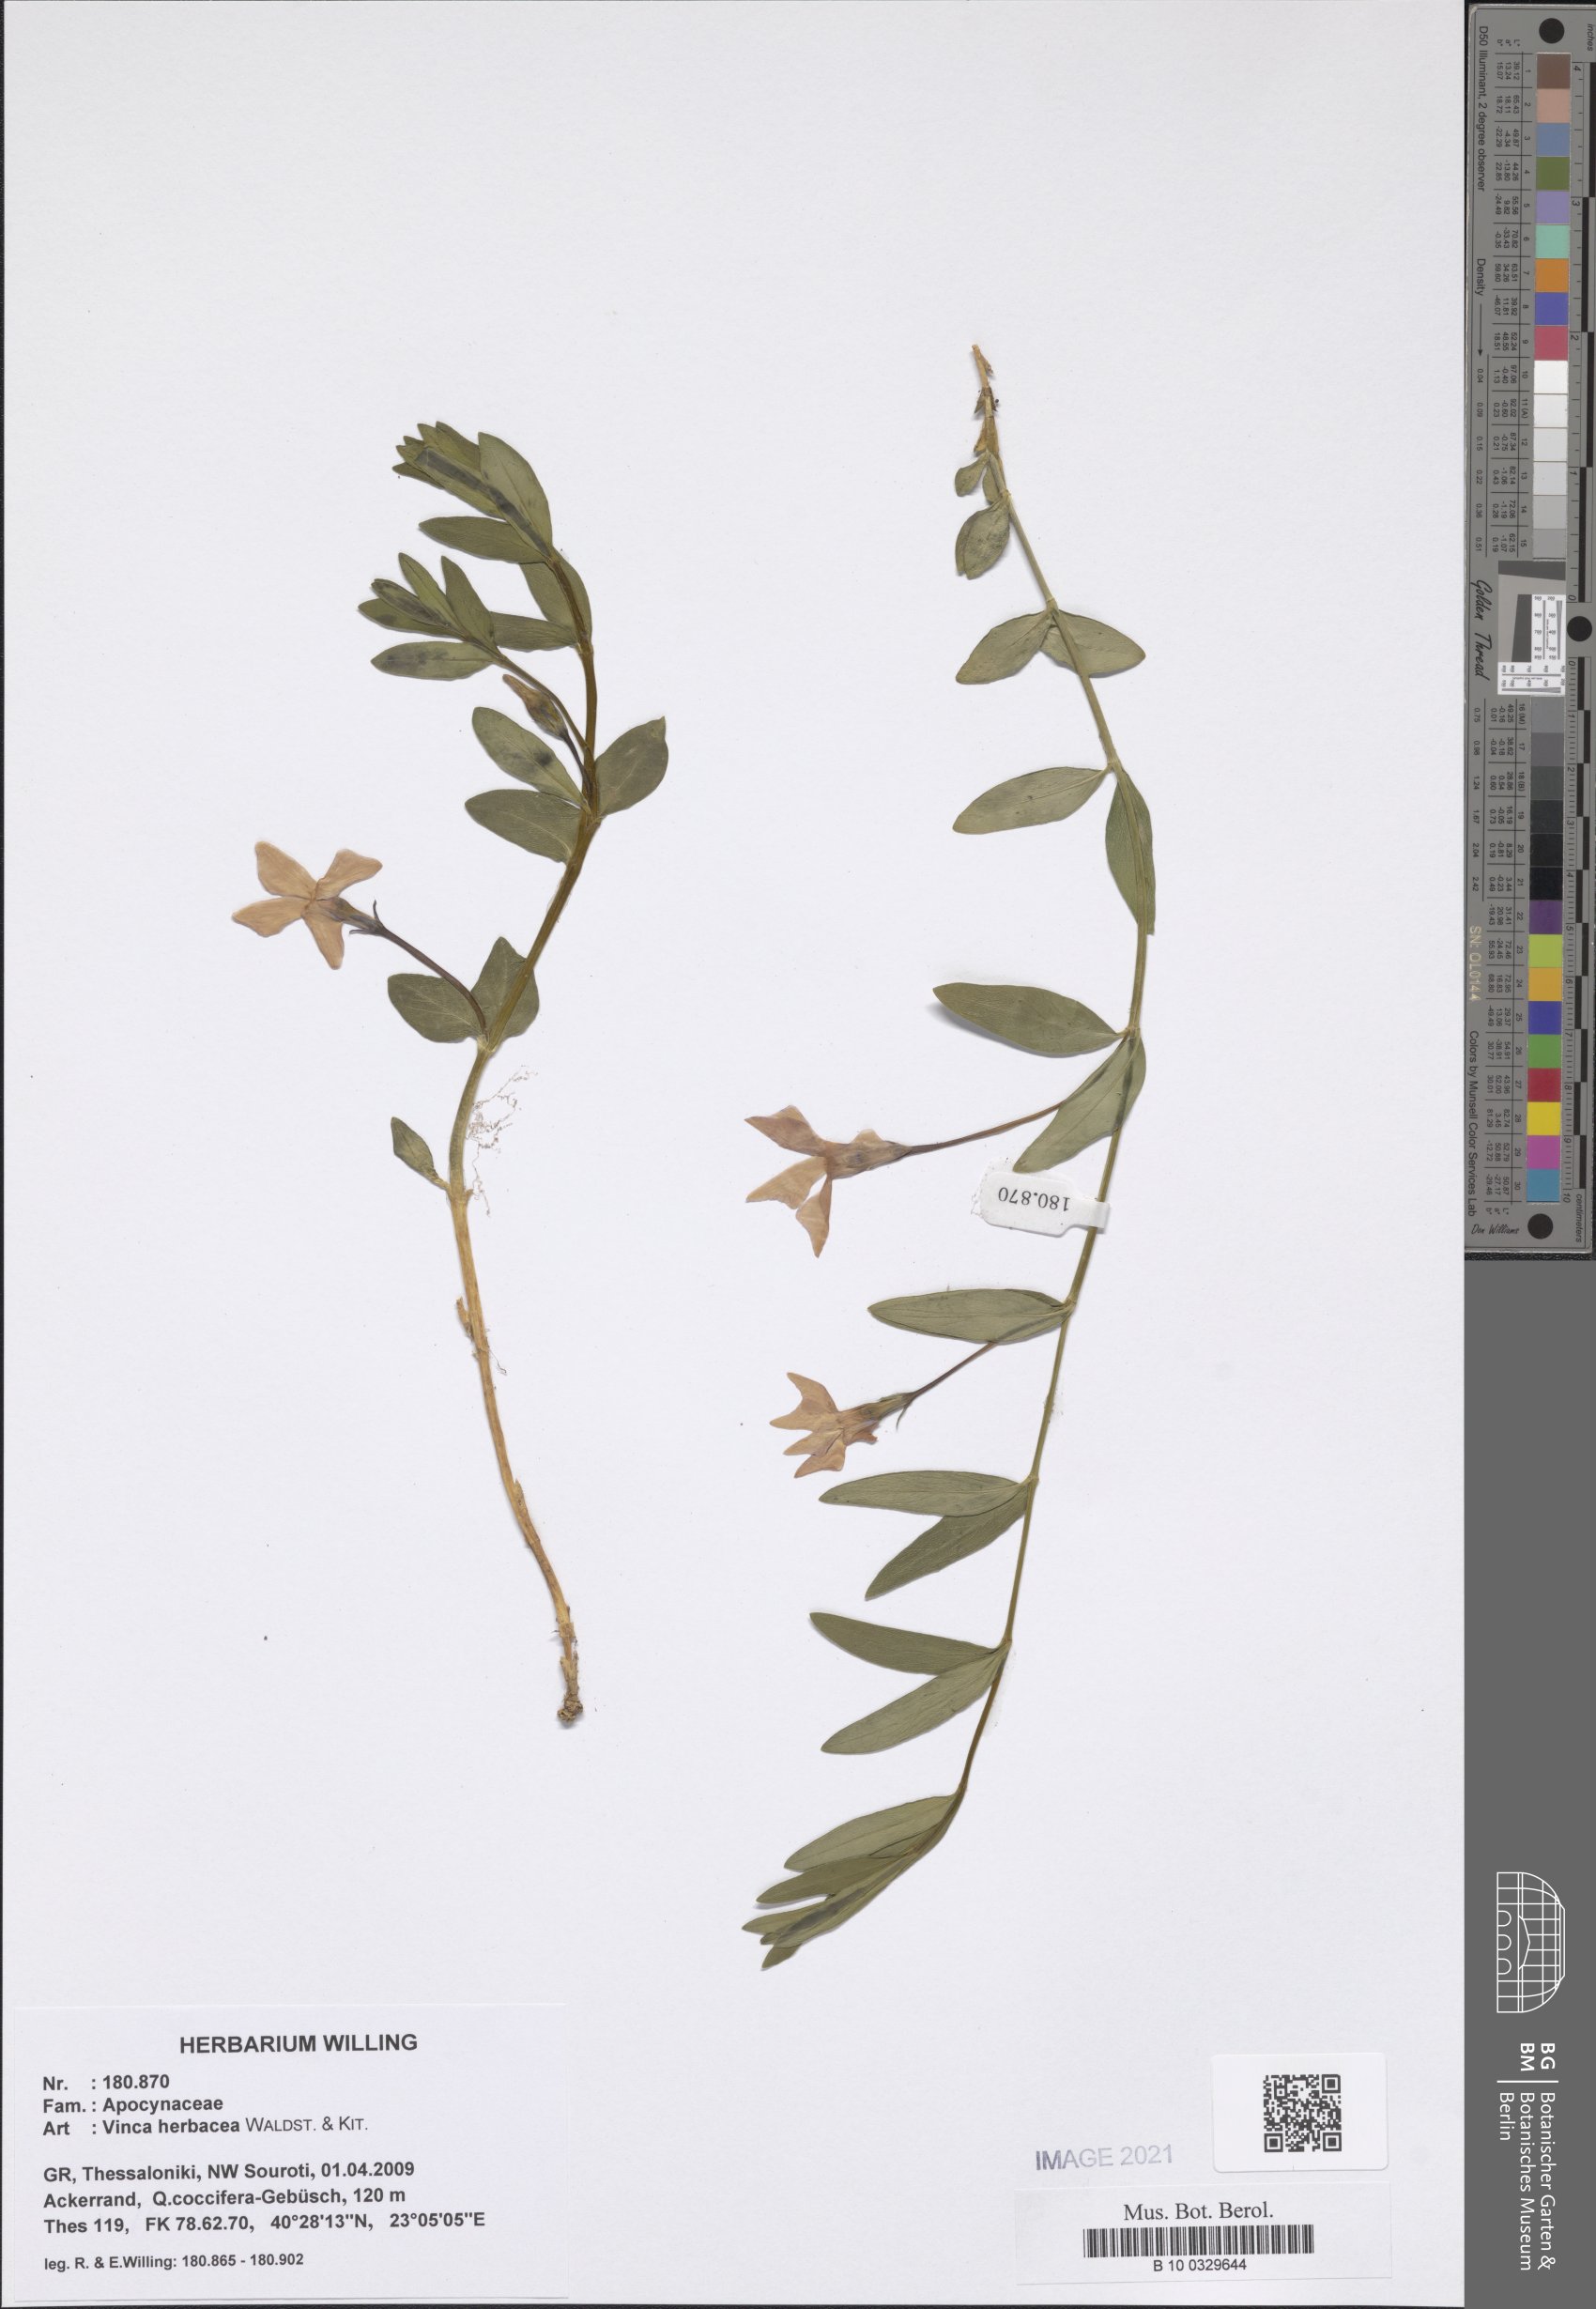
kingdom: Plantae
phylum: Tracheophyta
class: Magnoliopsida
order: Gentianales
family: Apocynaceae
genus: Vinca
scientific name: Vinca herbacea
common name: Herbaceous periwinkle
